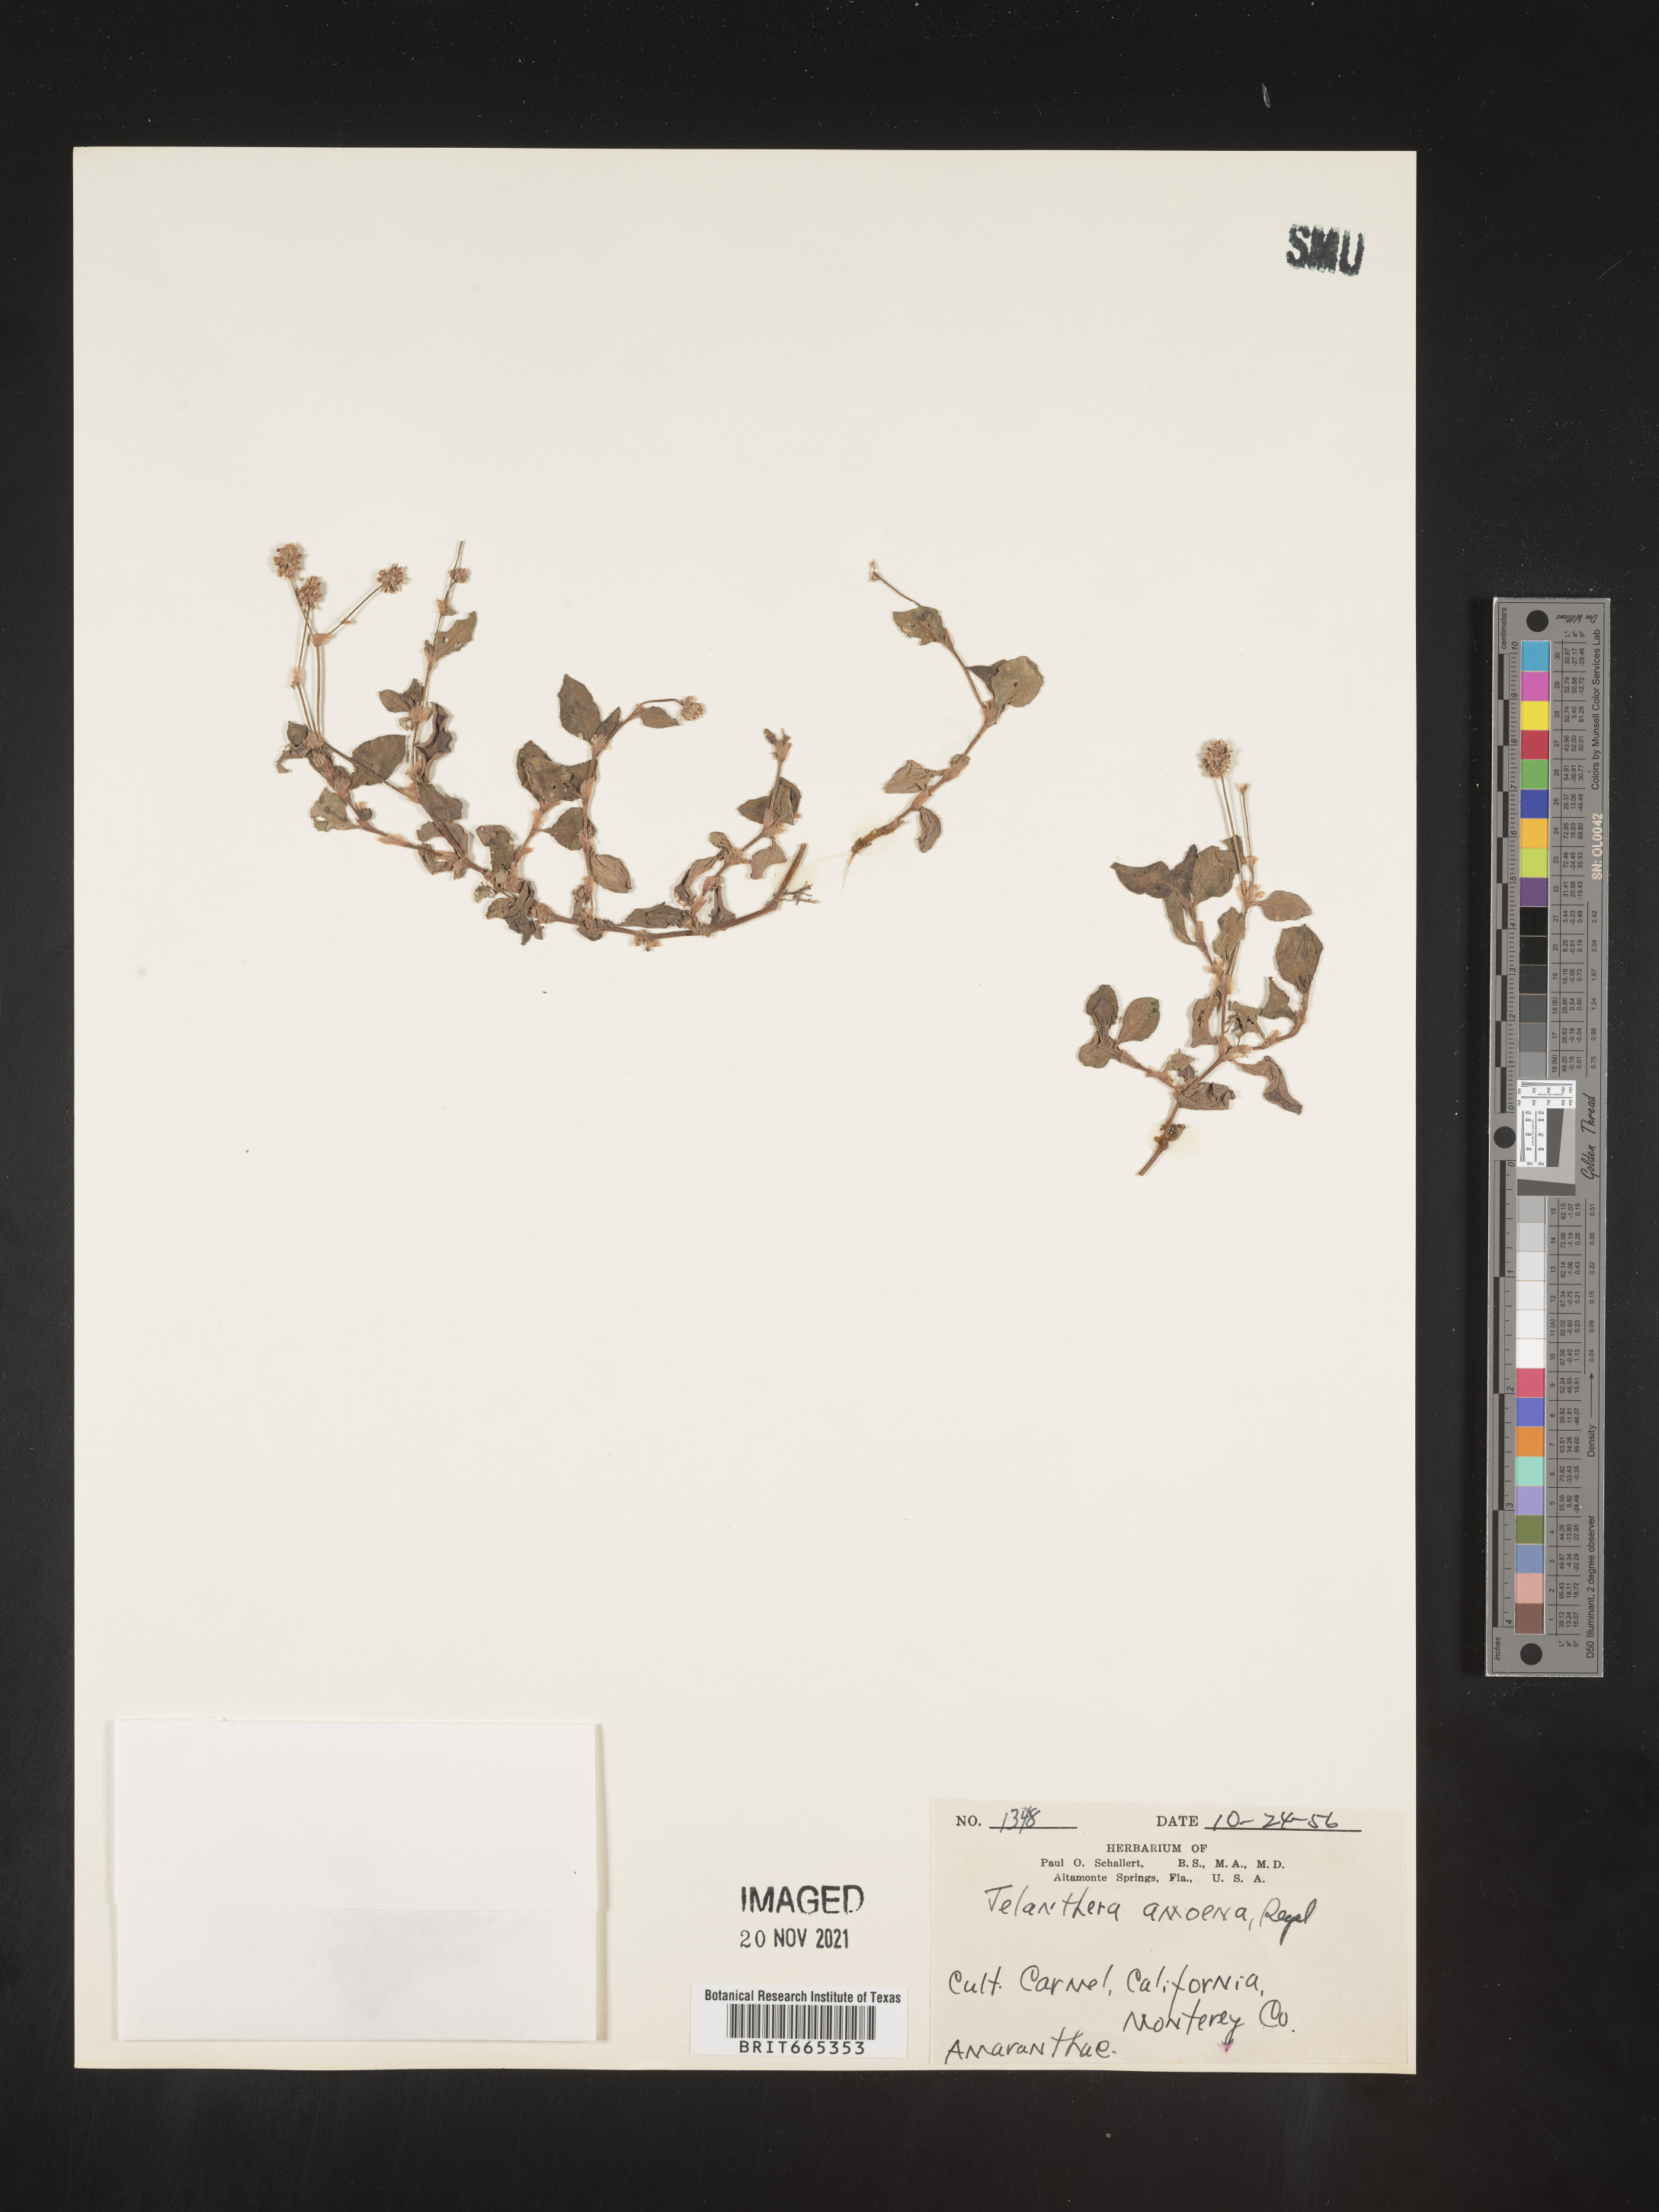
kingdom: Plantae
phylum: Tracheophyta
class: Magnoliopsida
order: Caryophyllales
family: Amaranthaceae
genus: Alternanthera
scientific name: Alternanthera
